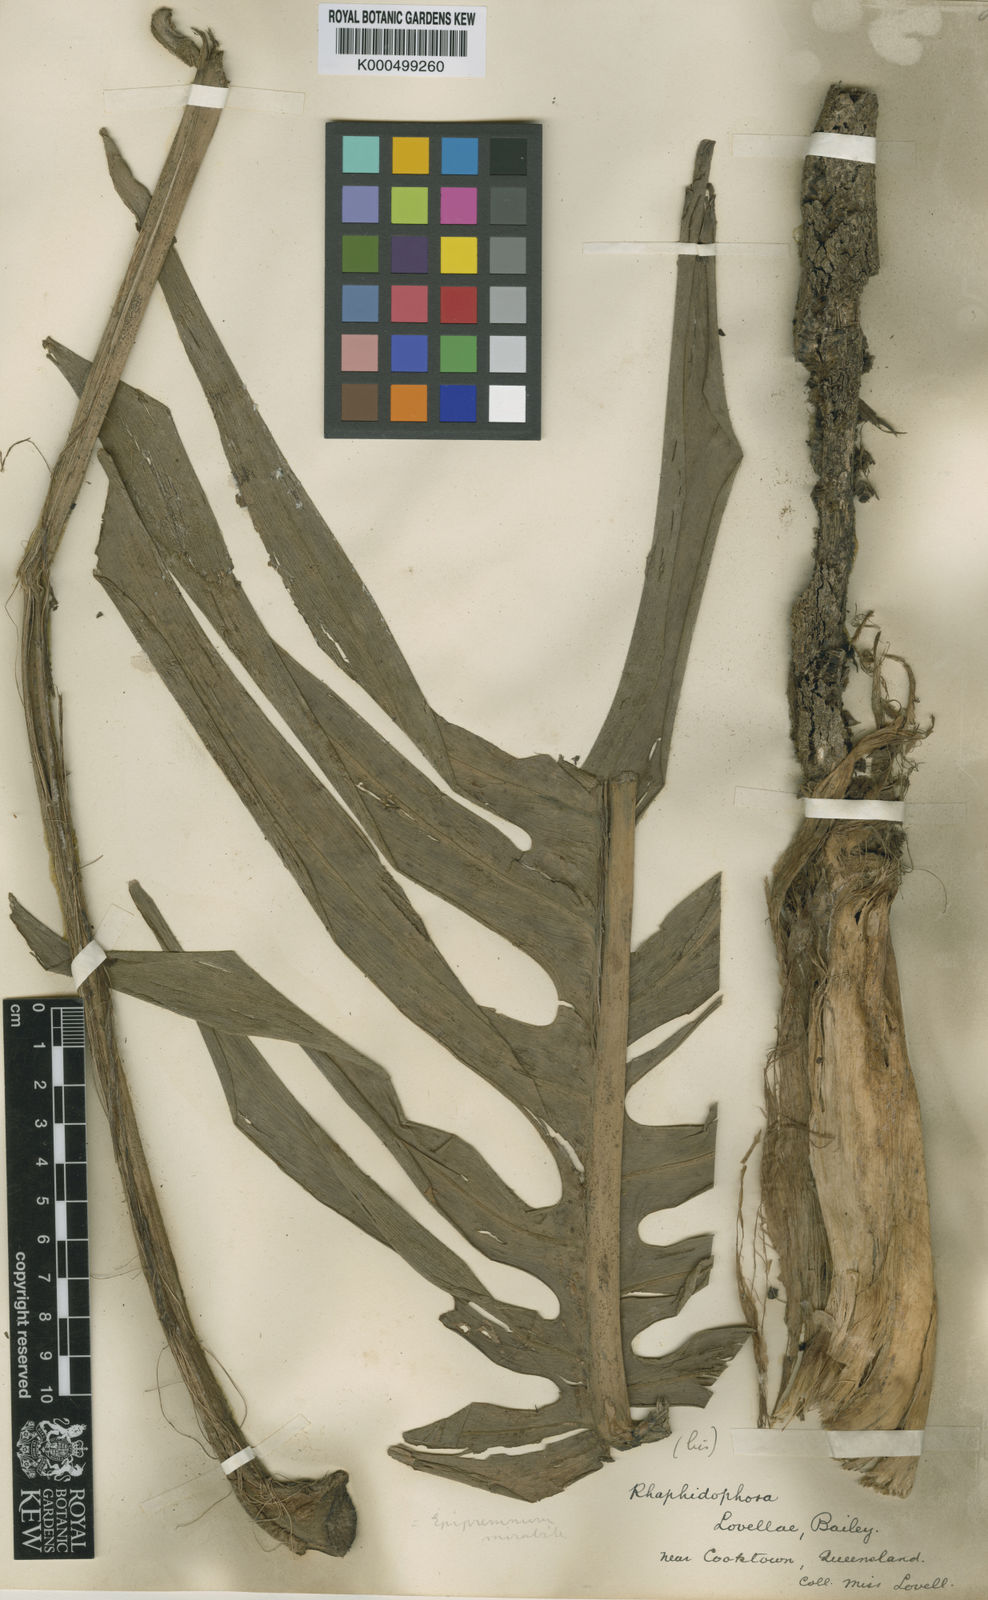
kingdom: Plantae
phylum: Tracheophyta
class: Liliopsida
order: Alismatales
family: Araceae
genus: Epipremnum
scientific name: Epipremnum pinnatum
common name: Centipede tongavine
